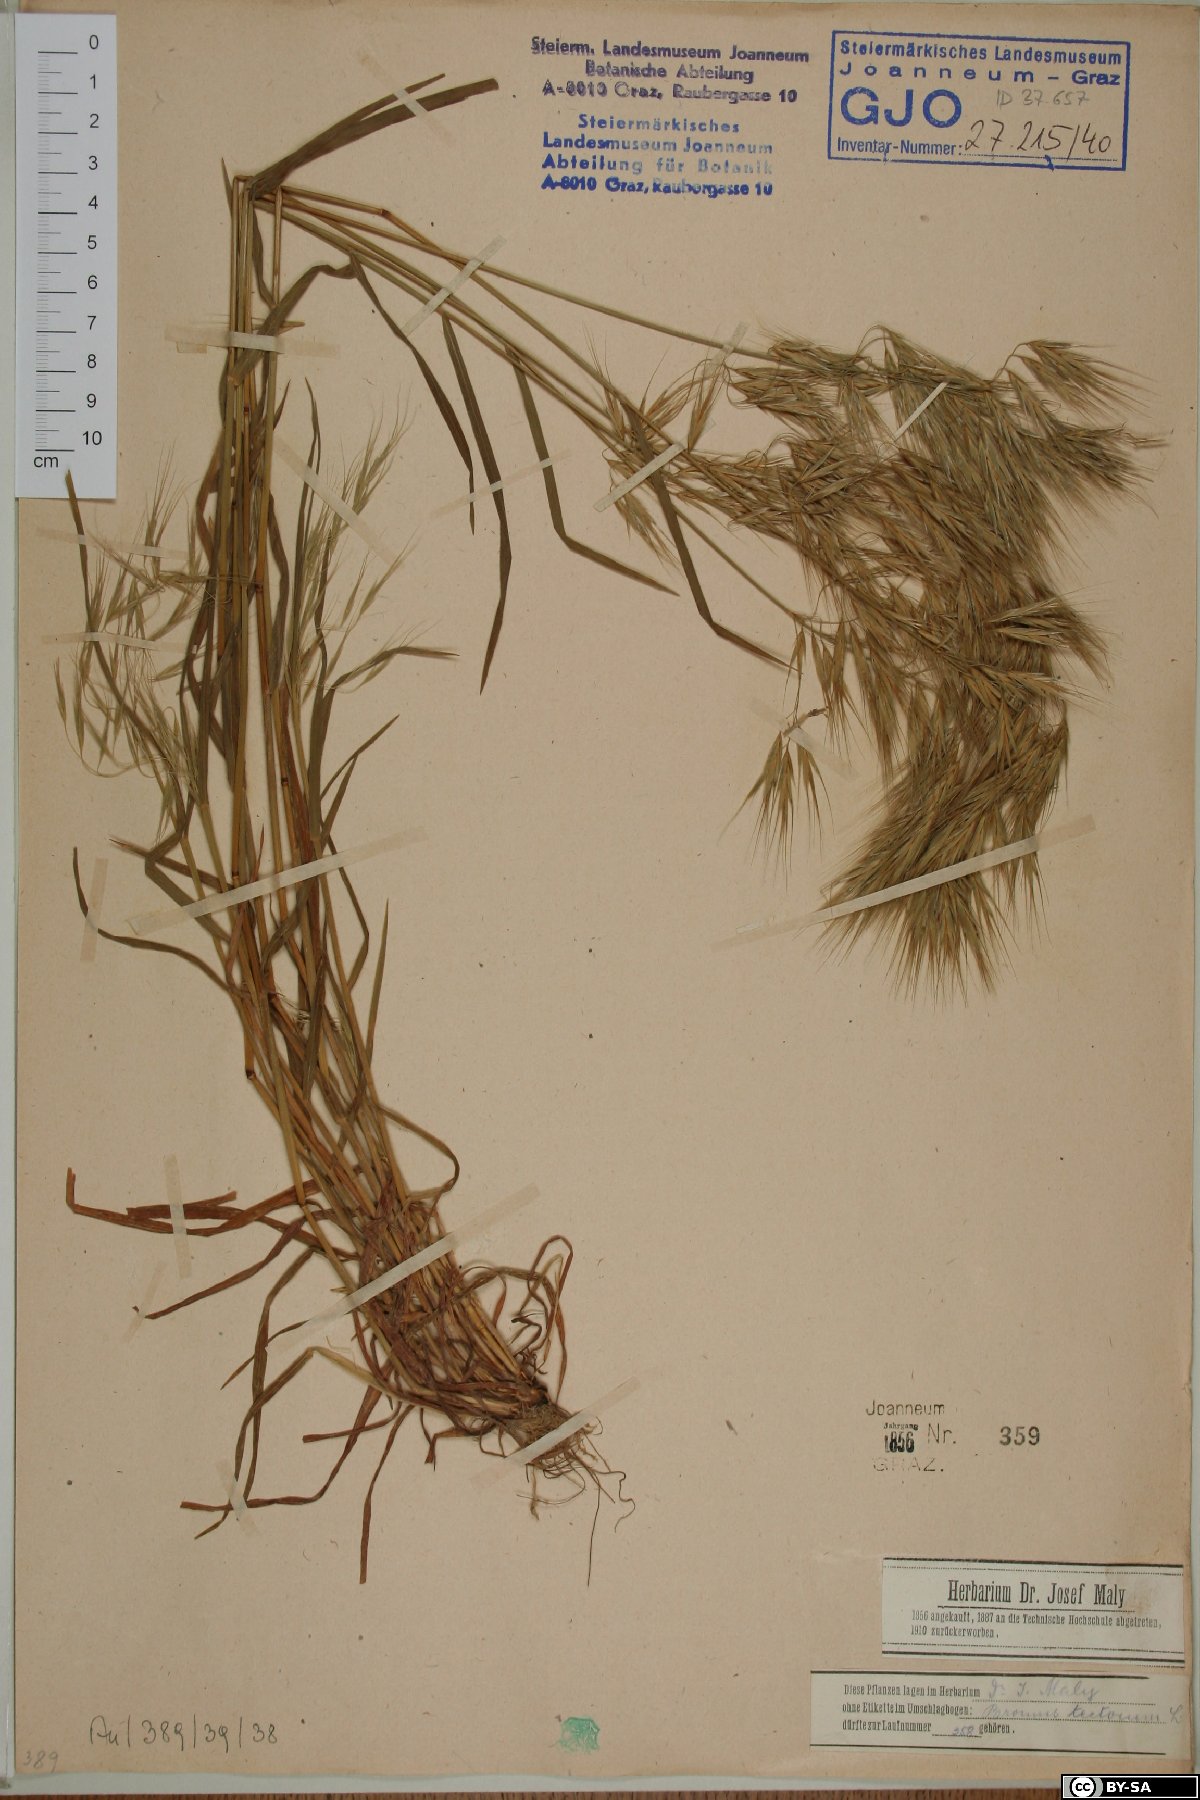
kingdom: Plantae
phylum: Tracheophyta
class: Liliopsida
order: Poales
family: Poaceae
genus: Bromus
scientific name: Bromus tectorum
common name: Cheatgrass
